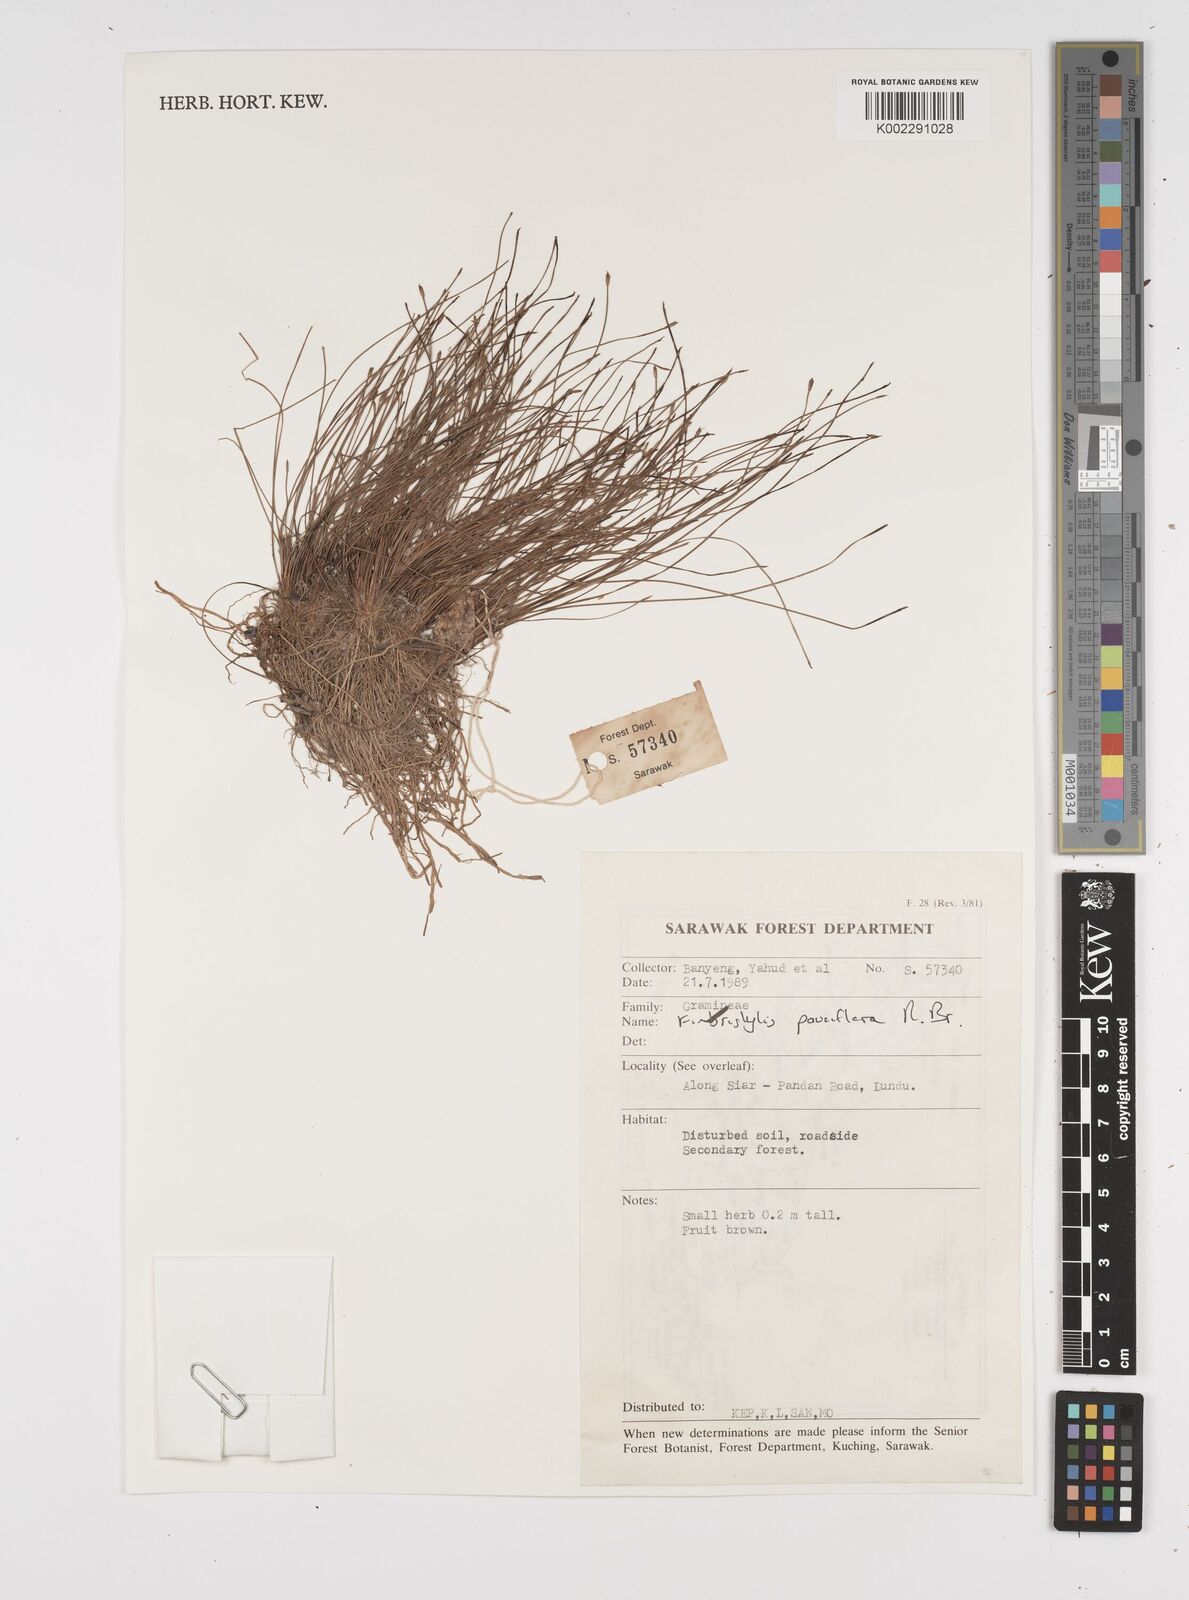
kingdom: Plantae
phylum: Tracheophyta
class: Liliopsida
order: Poales
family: Cyperaceae
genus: Fimbristylis
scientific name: Fimbristylis pauciflora
